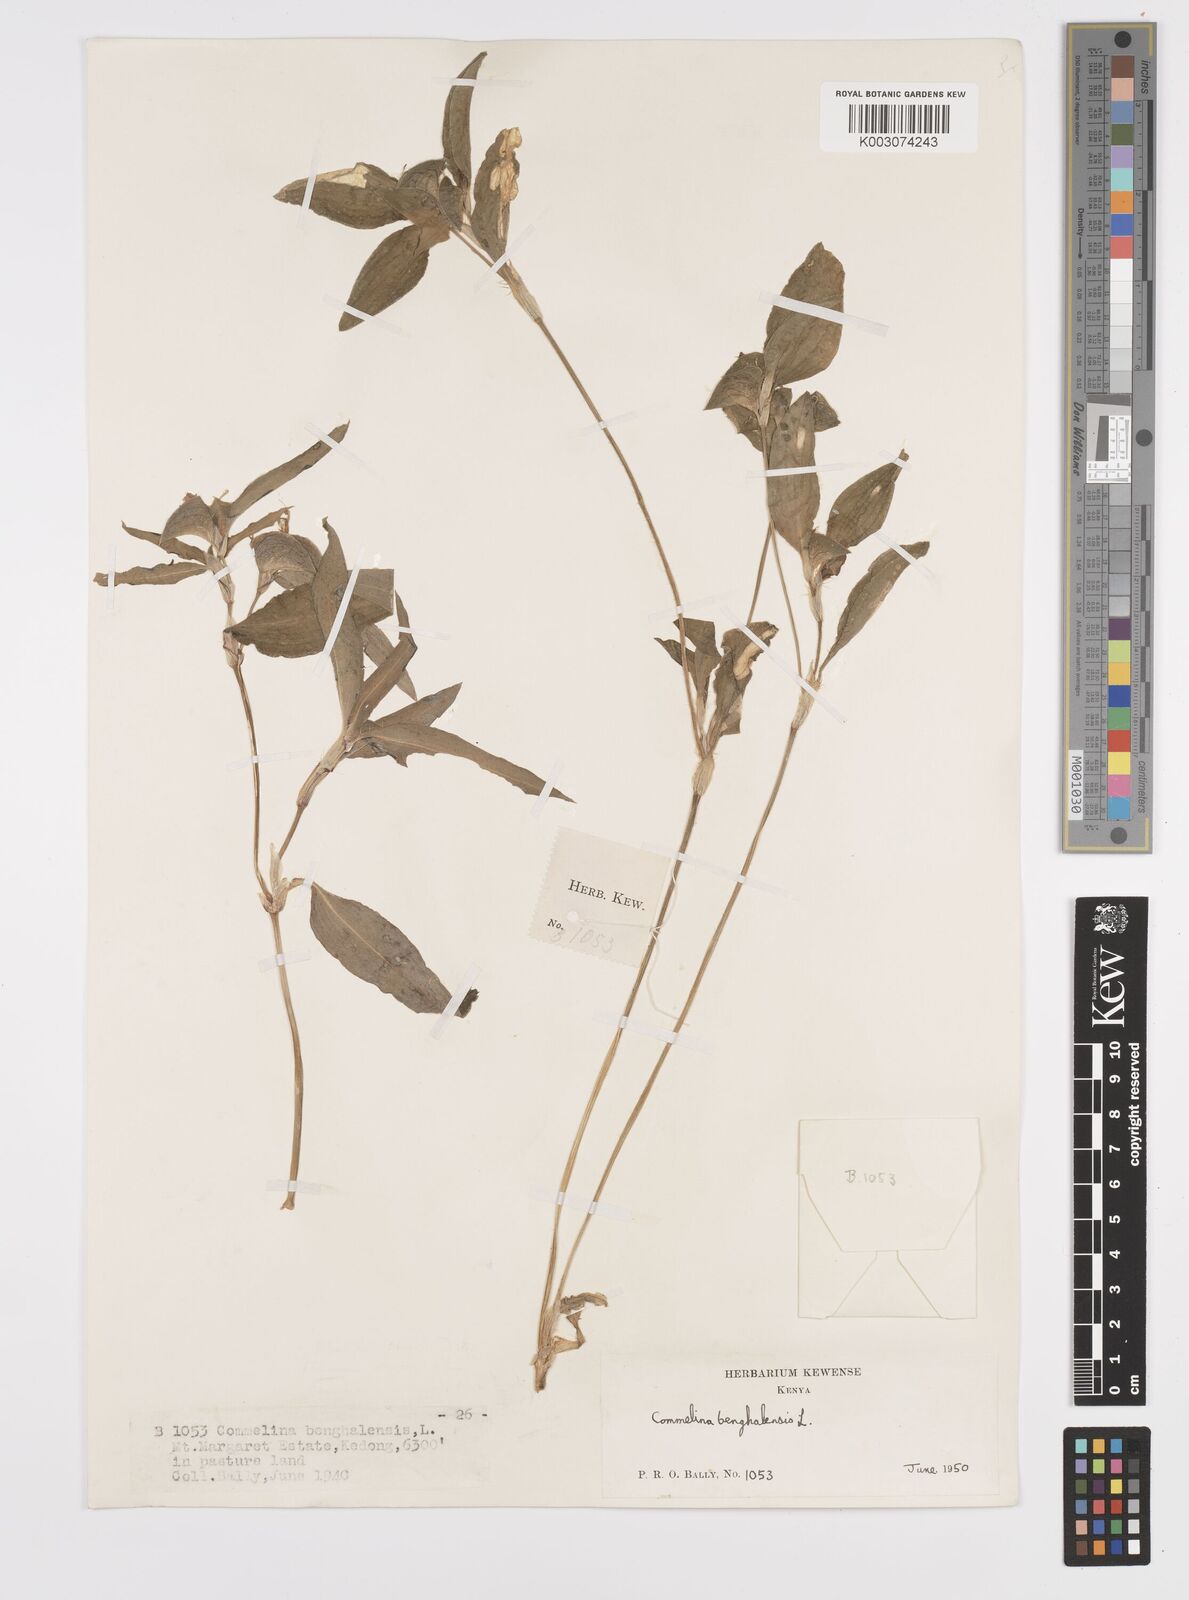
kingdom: Plantae
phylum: Tracheophyta
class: Liliopsida
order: Commelinales
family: Commelinaceae
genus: Commelina
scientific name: Commelina benghalensis
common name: Jio
